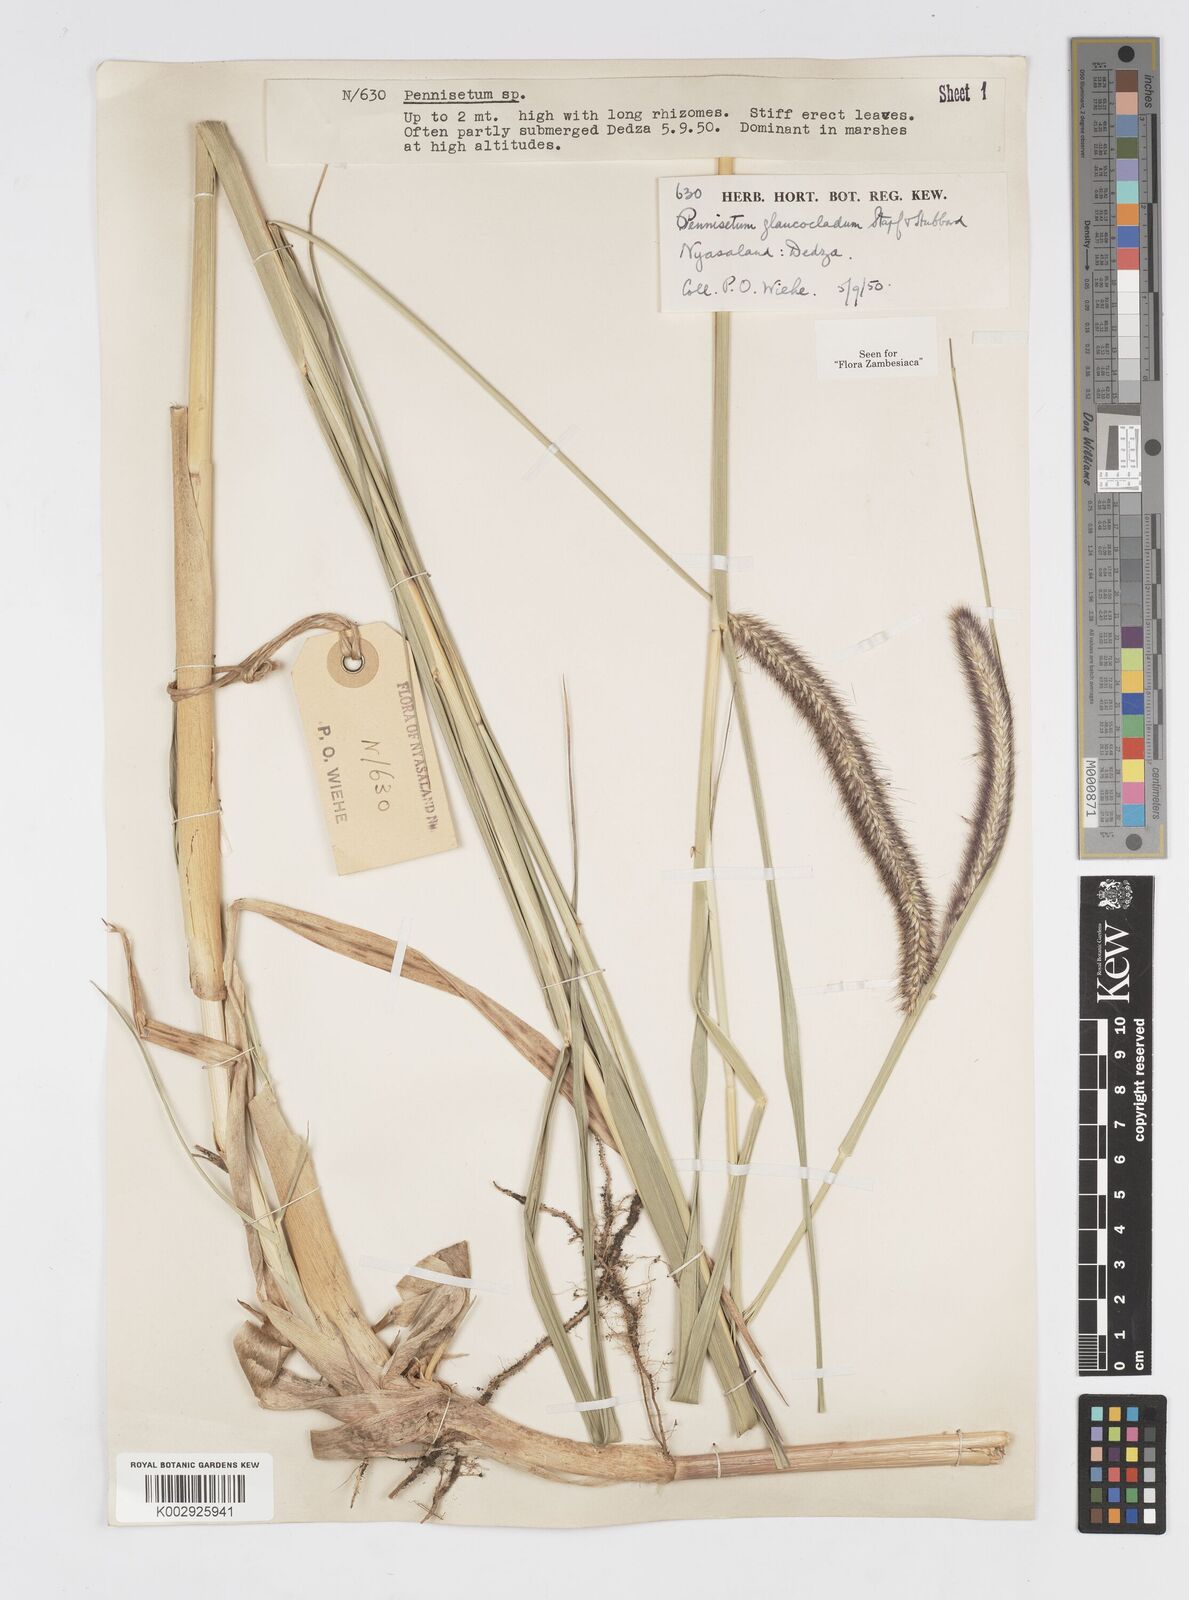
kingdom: Plantae
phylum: Tracheophyta
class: Liliopsida
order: Poales
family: Poaceae
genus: Cenchrus
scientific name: Cenchrus caudatus
